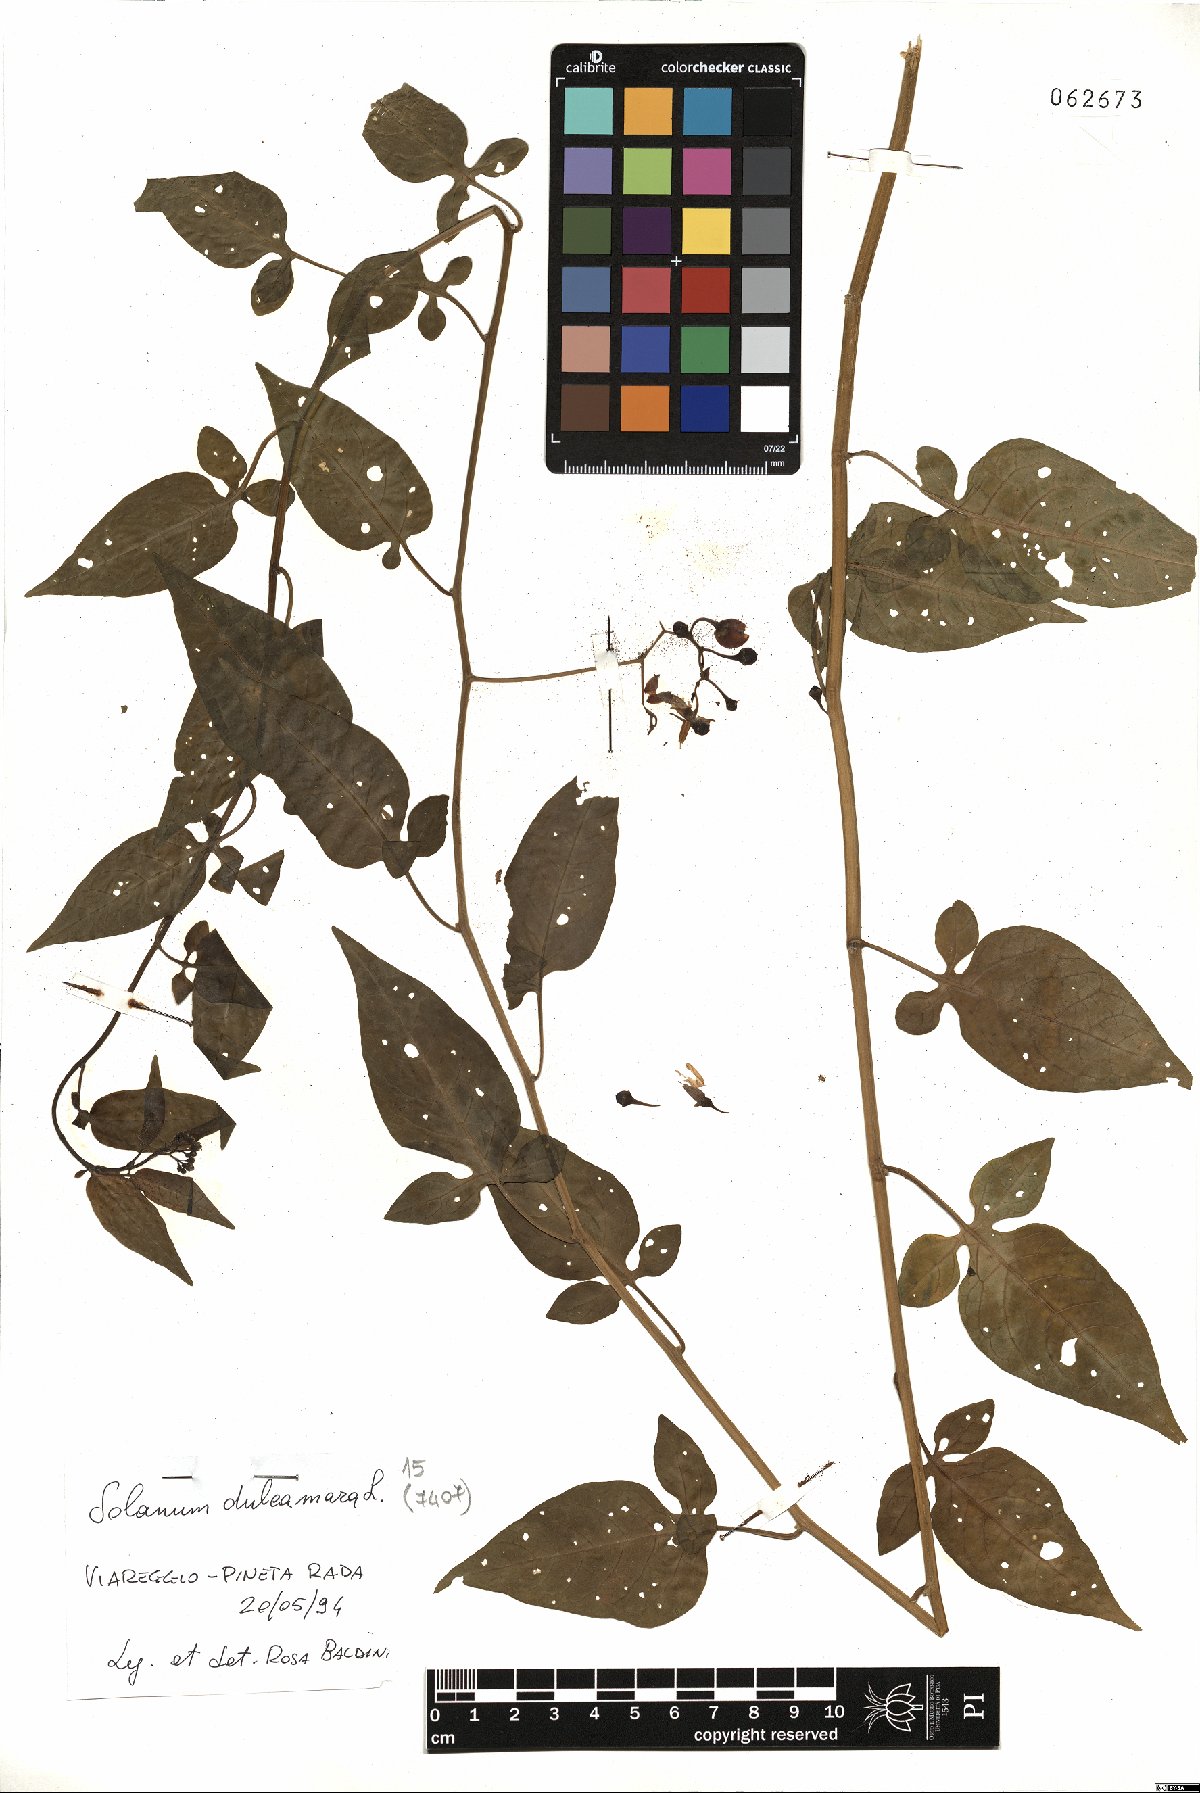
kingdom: Plantae
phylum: Tracheophyta
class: Magnoliopsida
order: Solanales
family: Solanaceae
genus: Solanum
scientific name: Solanum dulcamara
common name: Climbing nightshade
